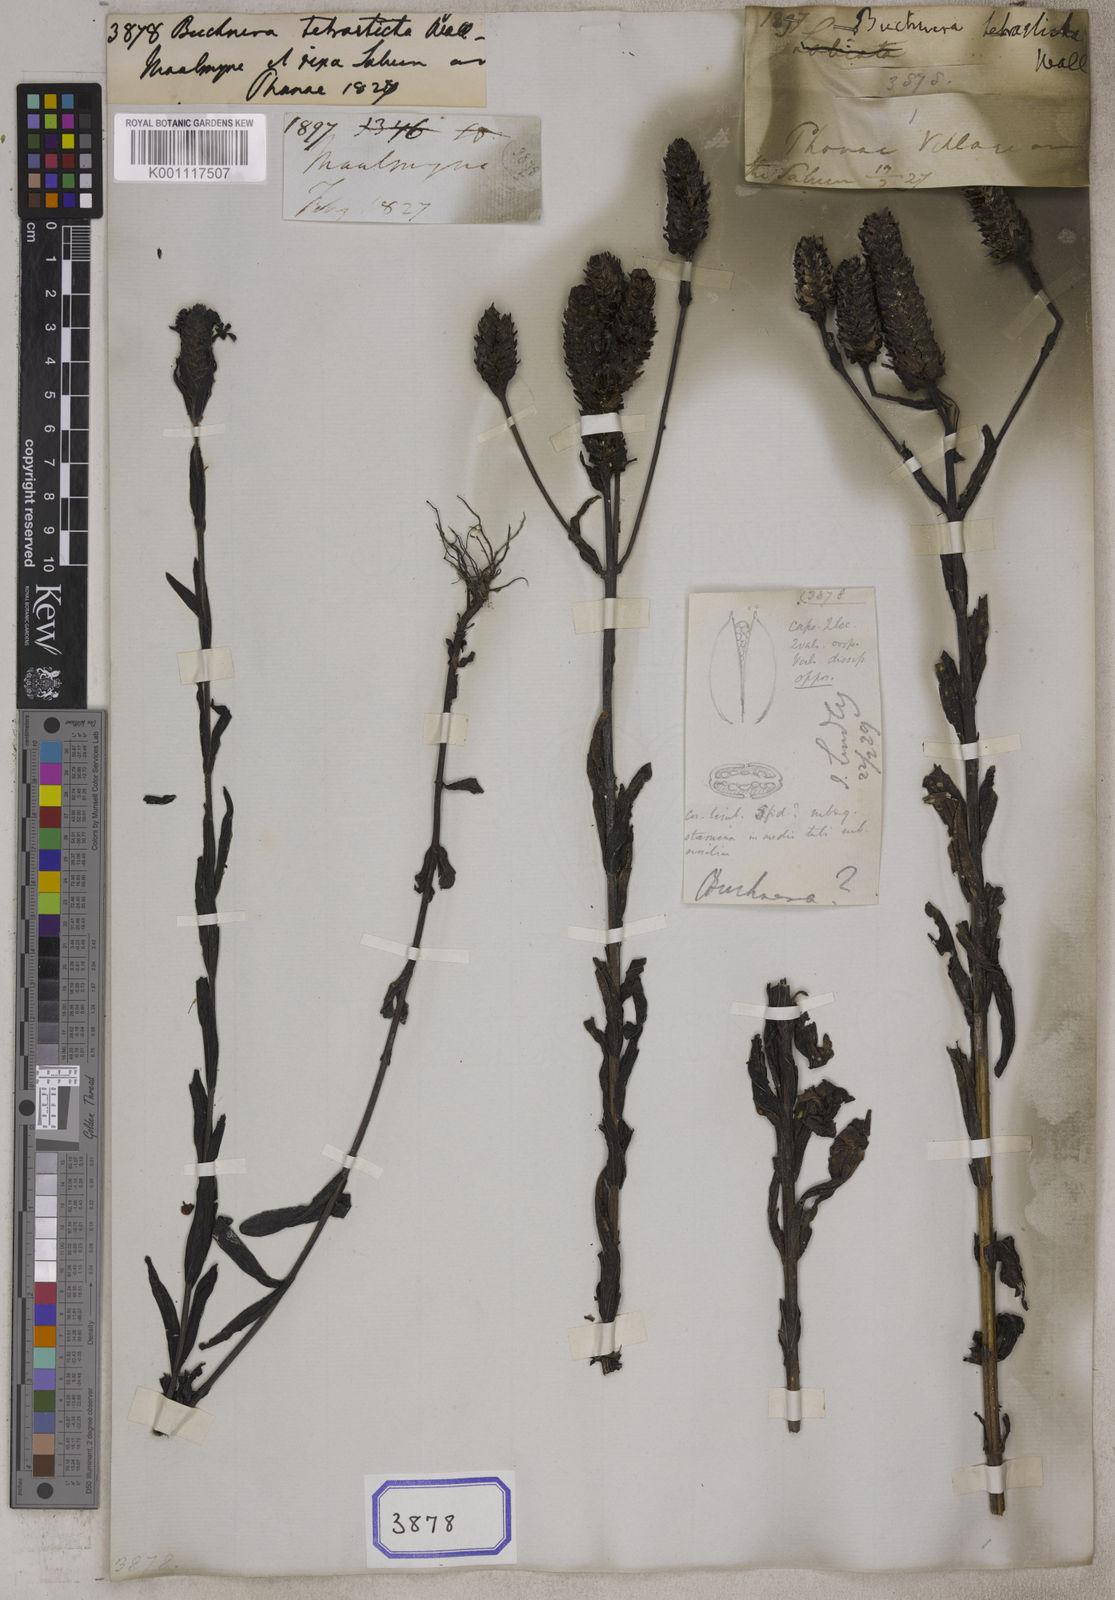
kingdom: Plantae
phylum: Tracheophyta
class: Magnoliopsida
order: Lamiales
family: Orobanchaceae
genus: Buchnera
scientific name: Buchnera
